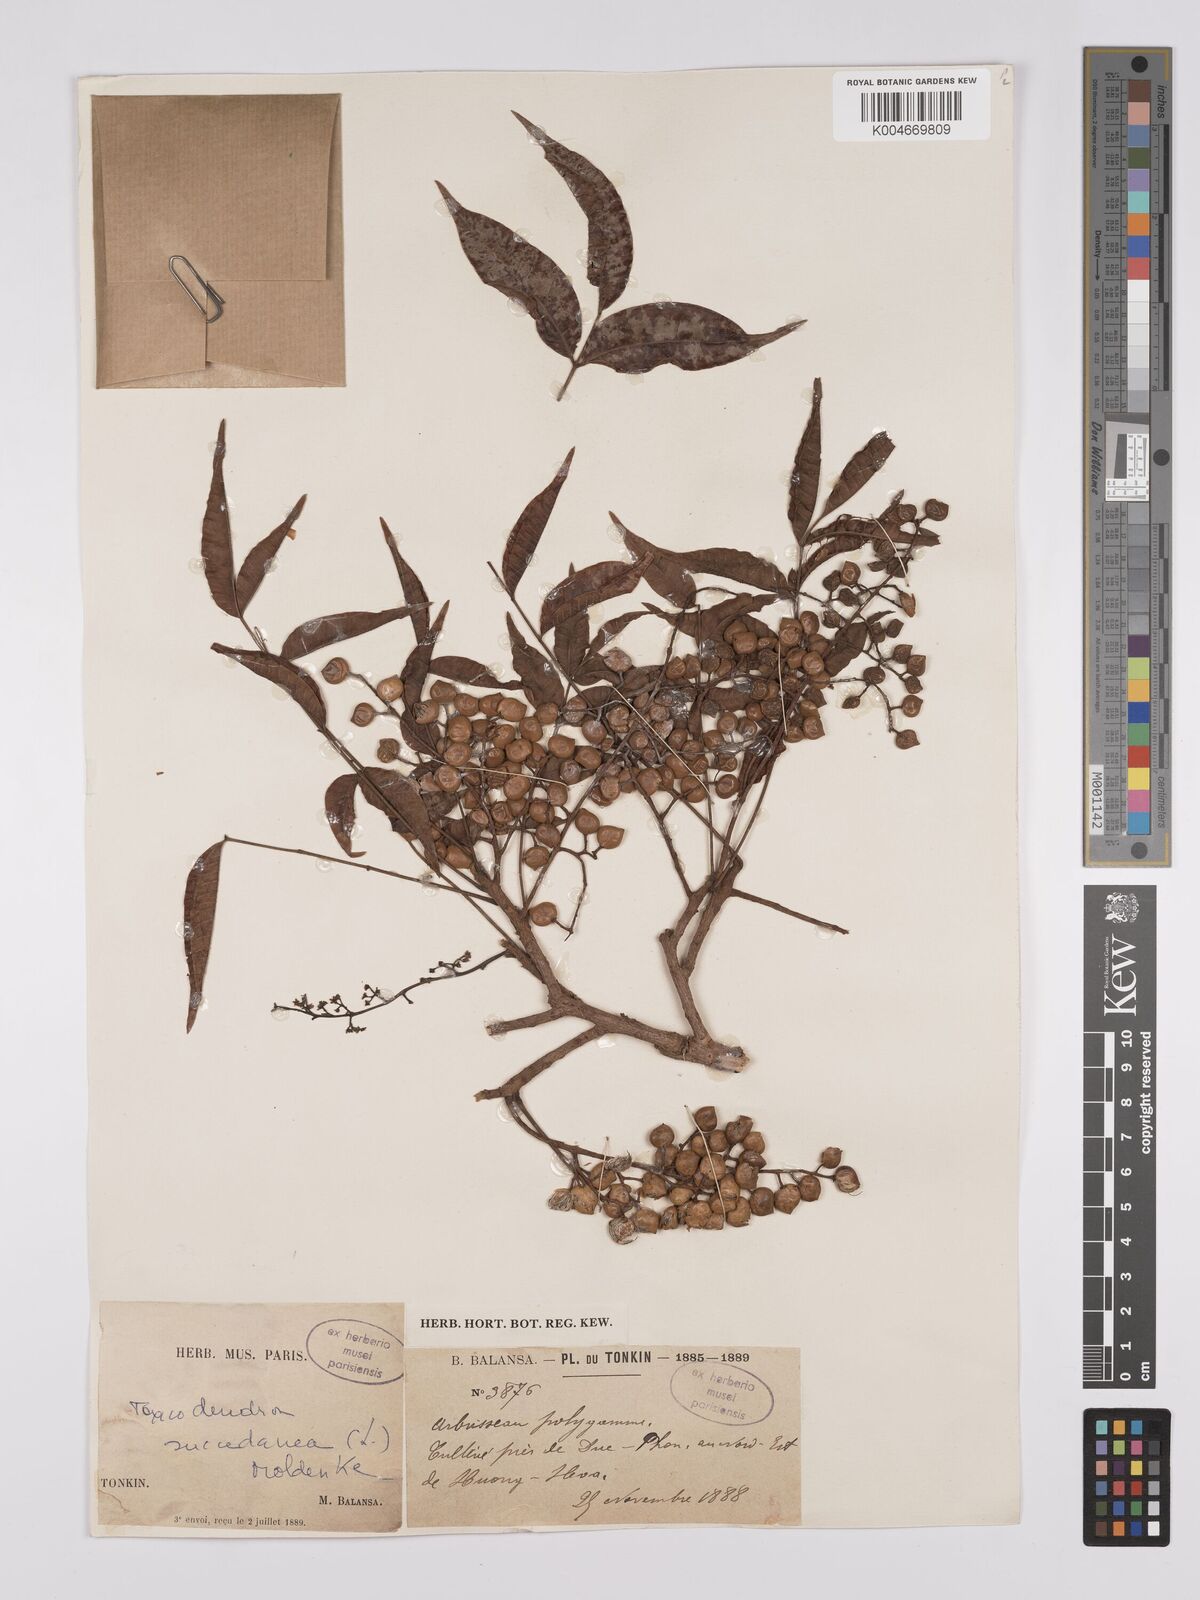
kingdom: Plantae
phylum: Tracheophyta
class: Magnoliopsida
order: Sapindales
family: Anacardiaceae
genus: Toxicodendron
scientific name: Toxicodendron succedaneum
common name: Wax tree
